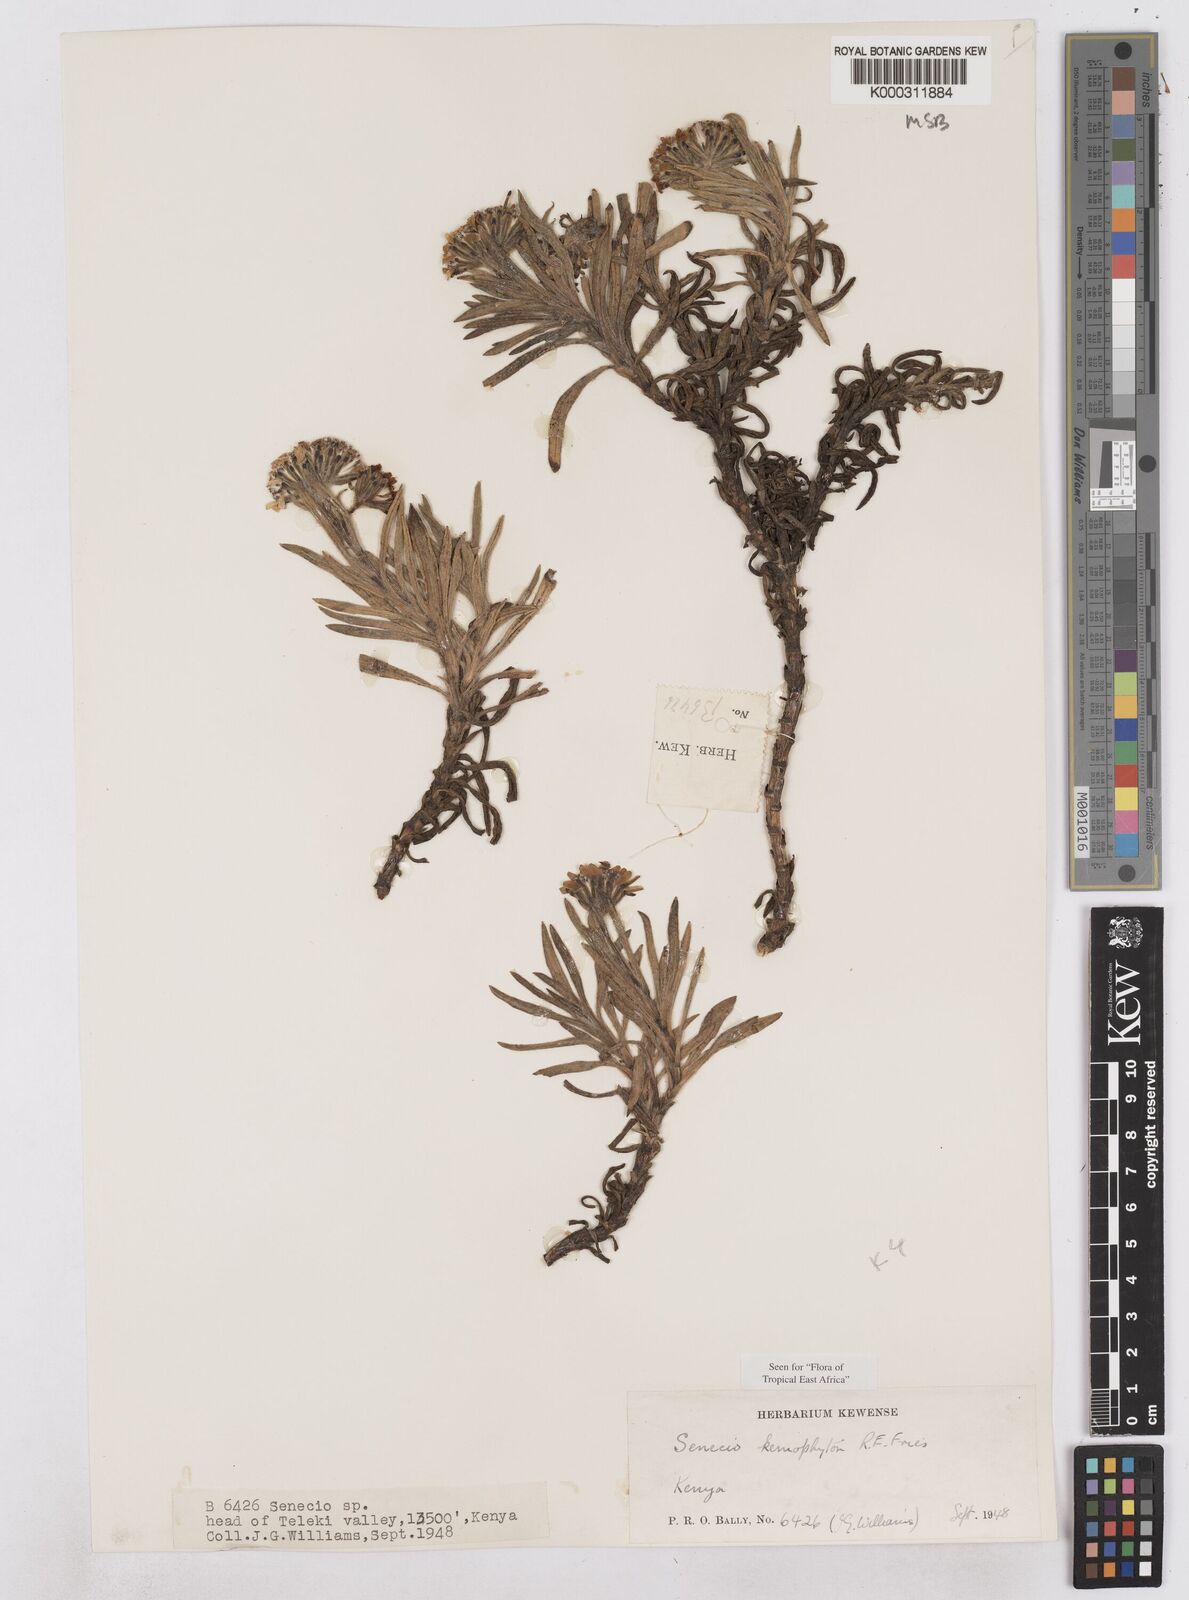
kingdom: Plantae
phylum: Tracheophyta
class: Magnoliopsida
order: Asterales
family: Asteraceae
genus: Senecio
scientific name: Senecio keniophytum
